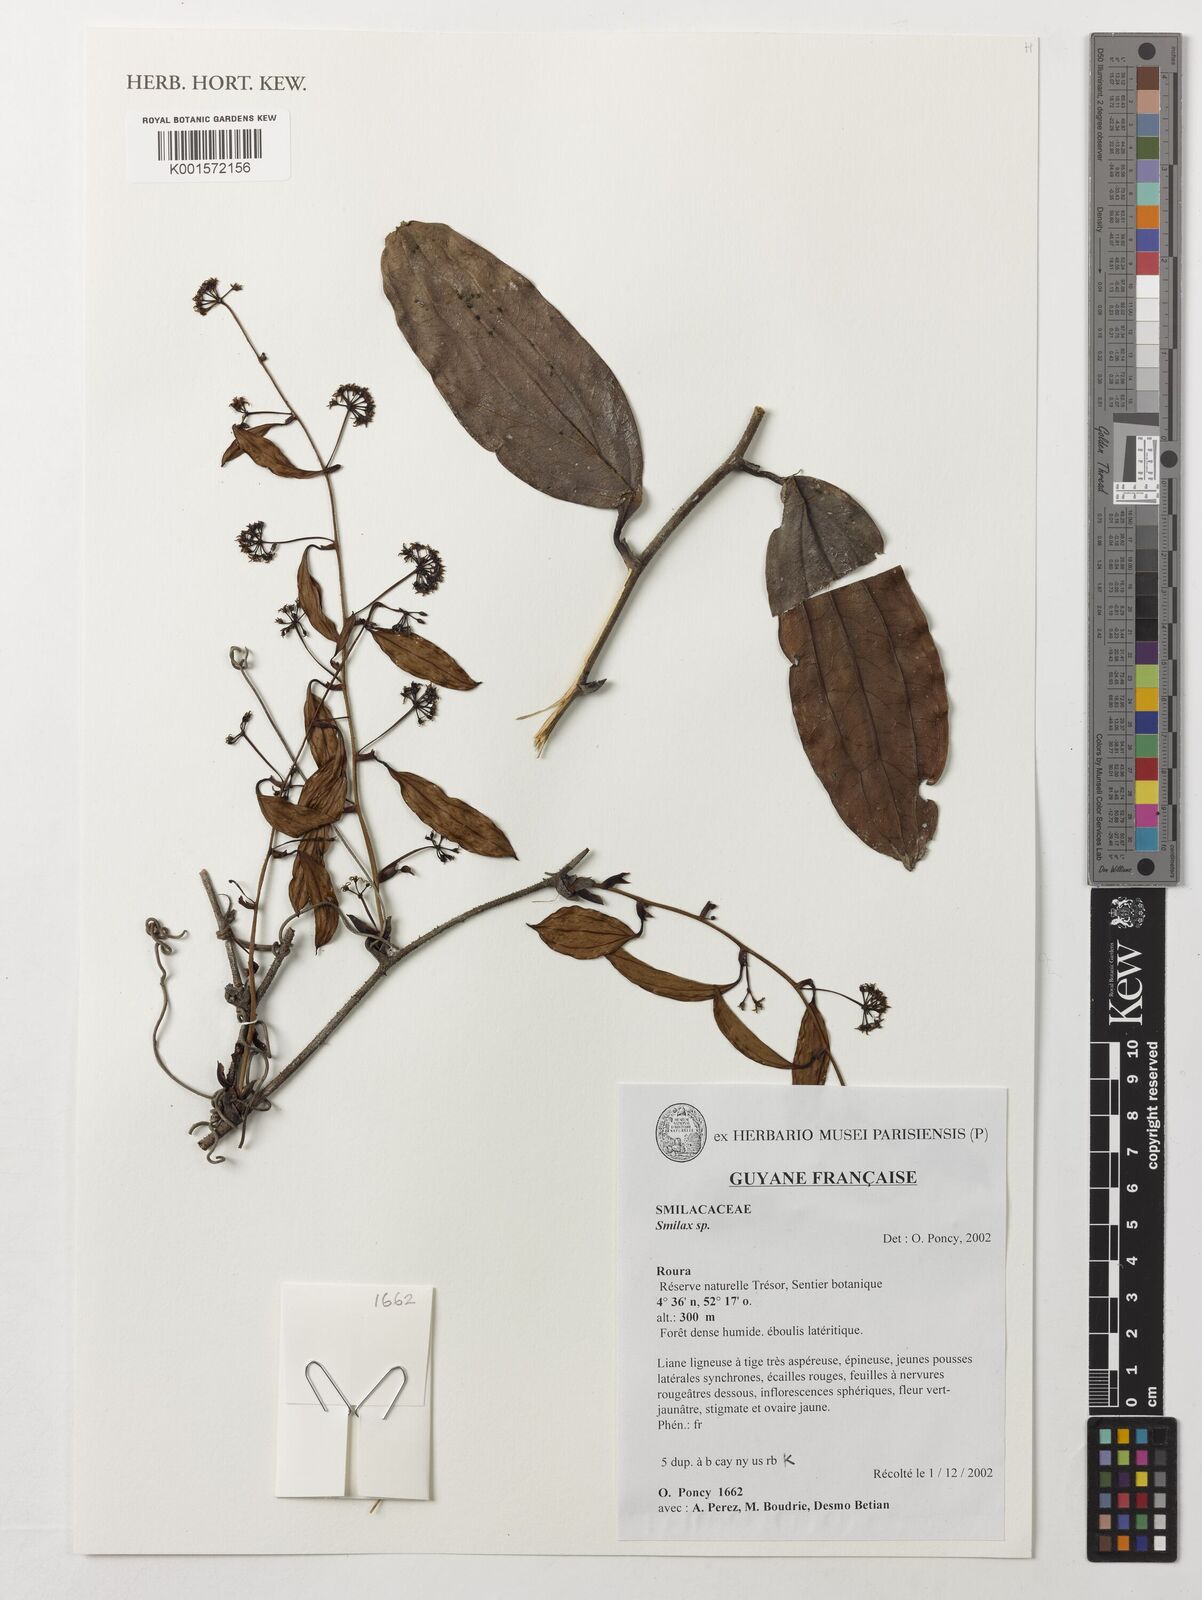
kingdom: Plantae
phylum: Tracheophyta
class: Liliopsida
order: Liliales
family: Smilacaceae
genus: Smilax
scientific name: Smilax
